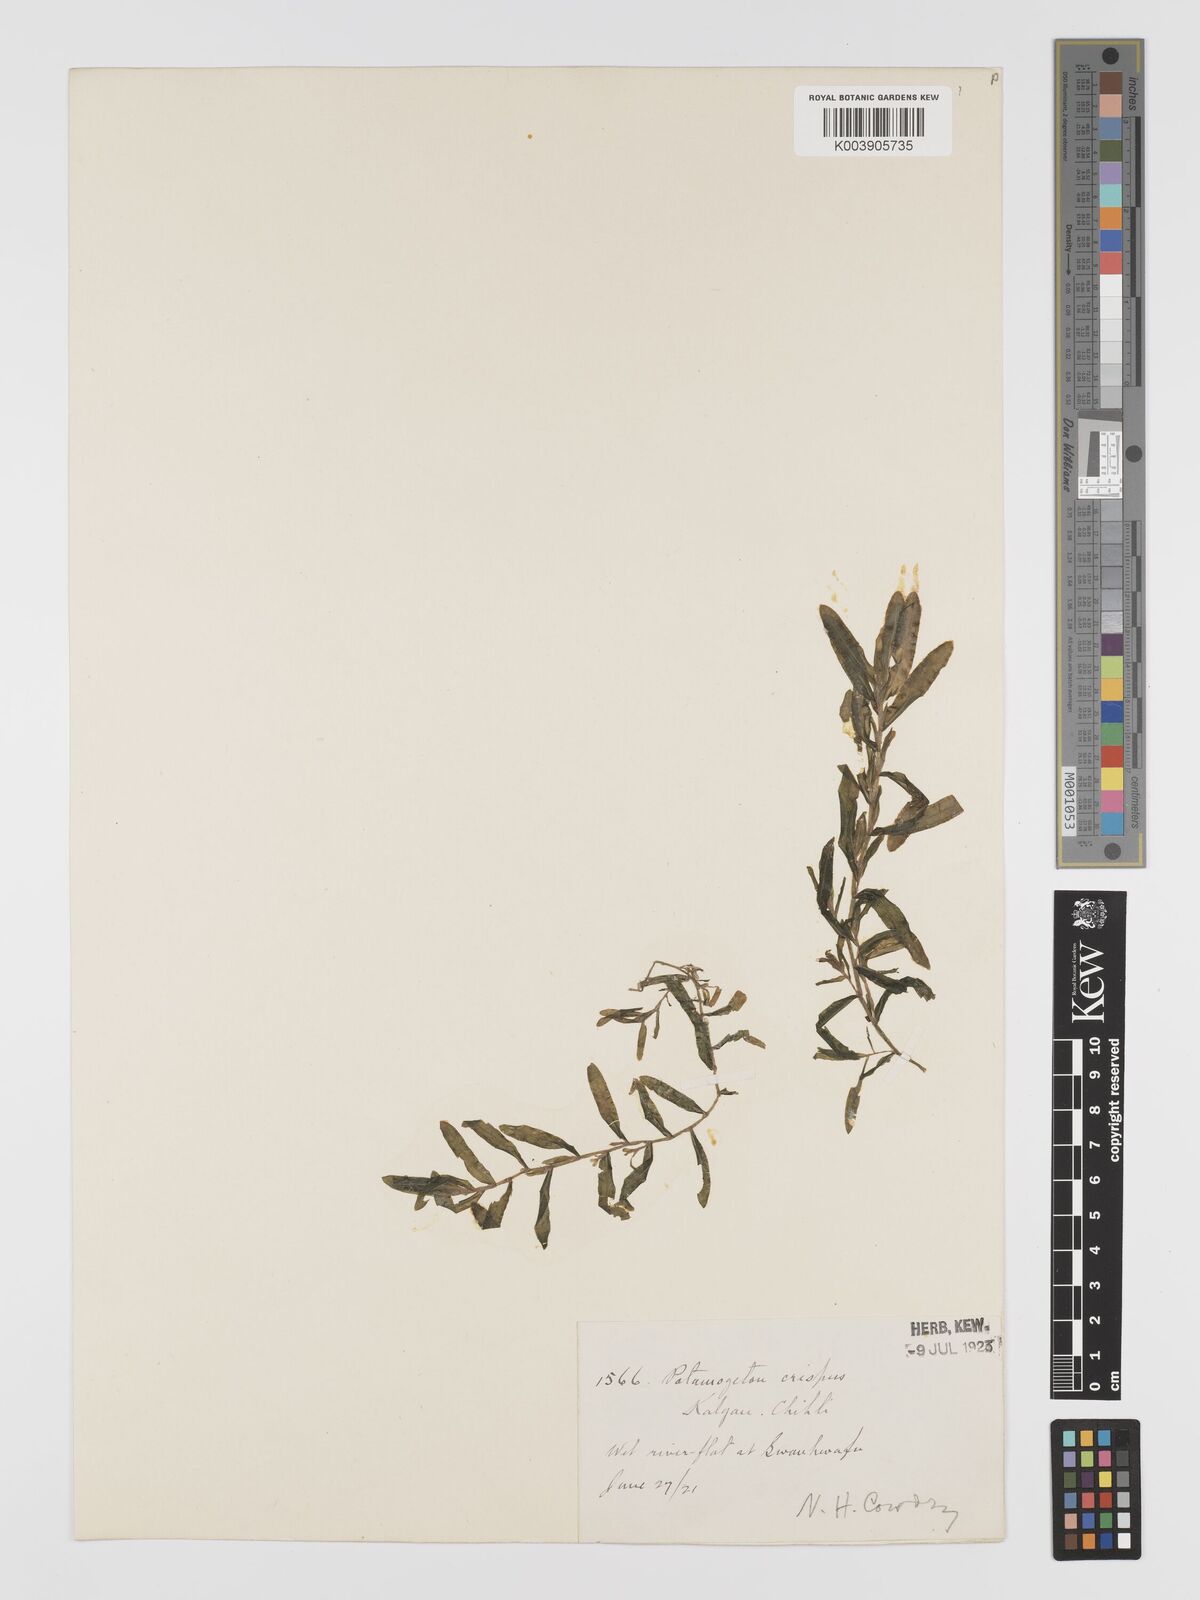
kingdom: Plantae
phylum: Tracheophyta
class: Liliopsida
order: Alismatales
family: Potamogetonaceae
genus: Potamogeton
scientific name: Potamogeton crispus
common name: Curled pondweed
